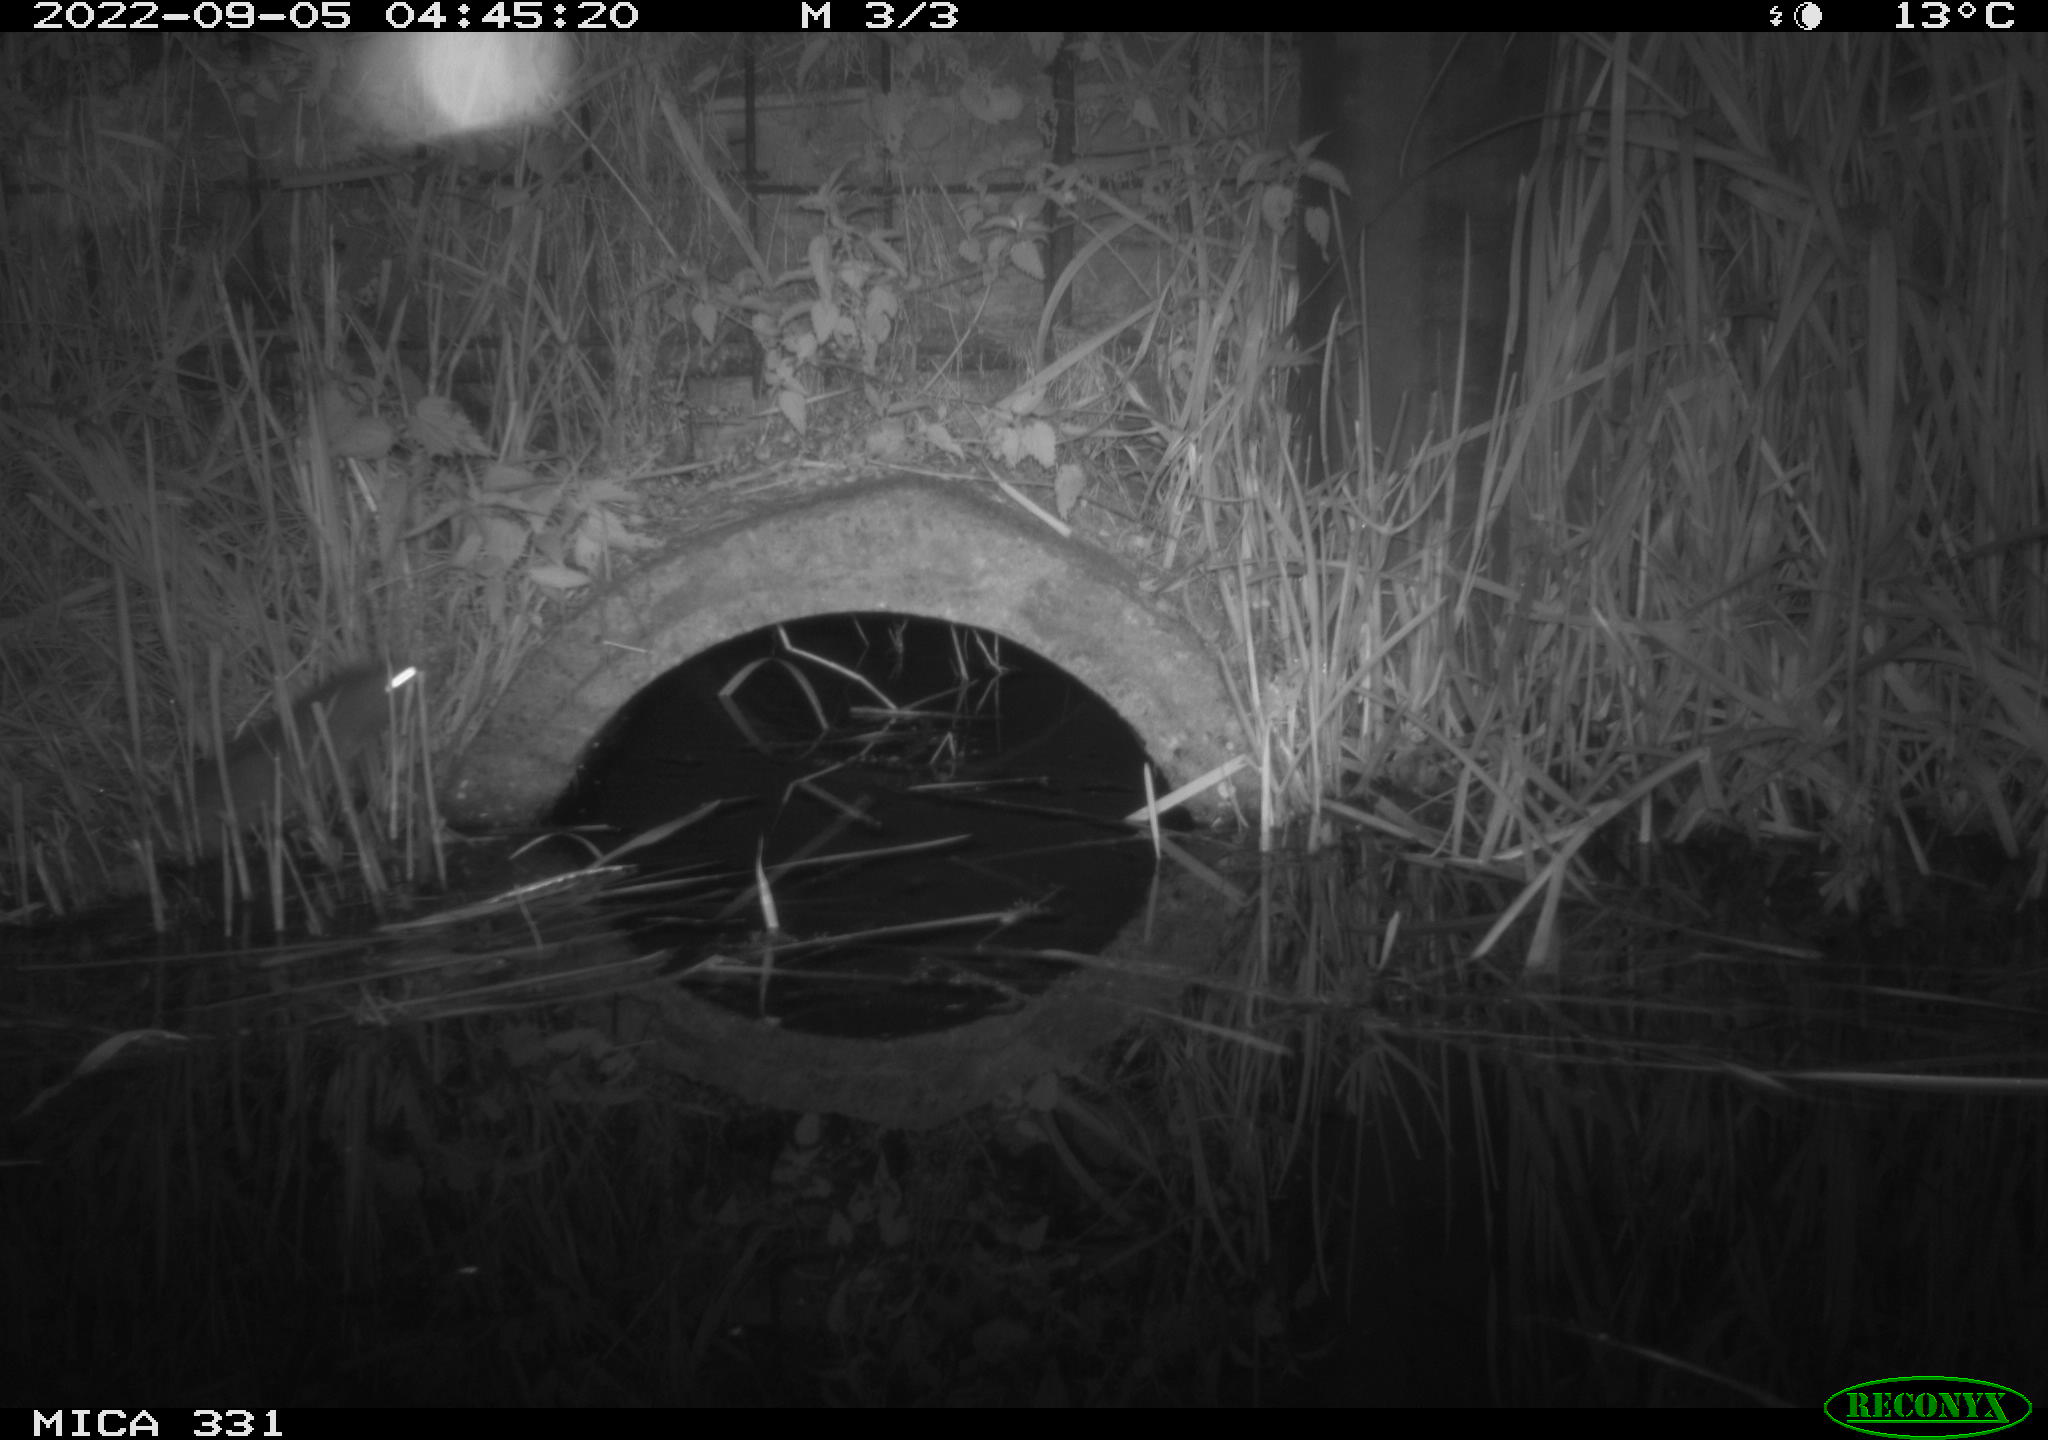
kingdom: Animalia
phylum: Chordata
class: Mammalia
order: Rodentia
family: Muridae
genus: Rattus
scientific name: Rattus norvegicus
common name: Brown rat
